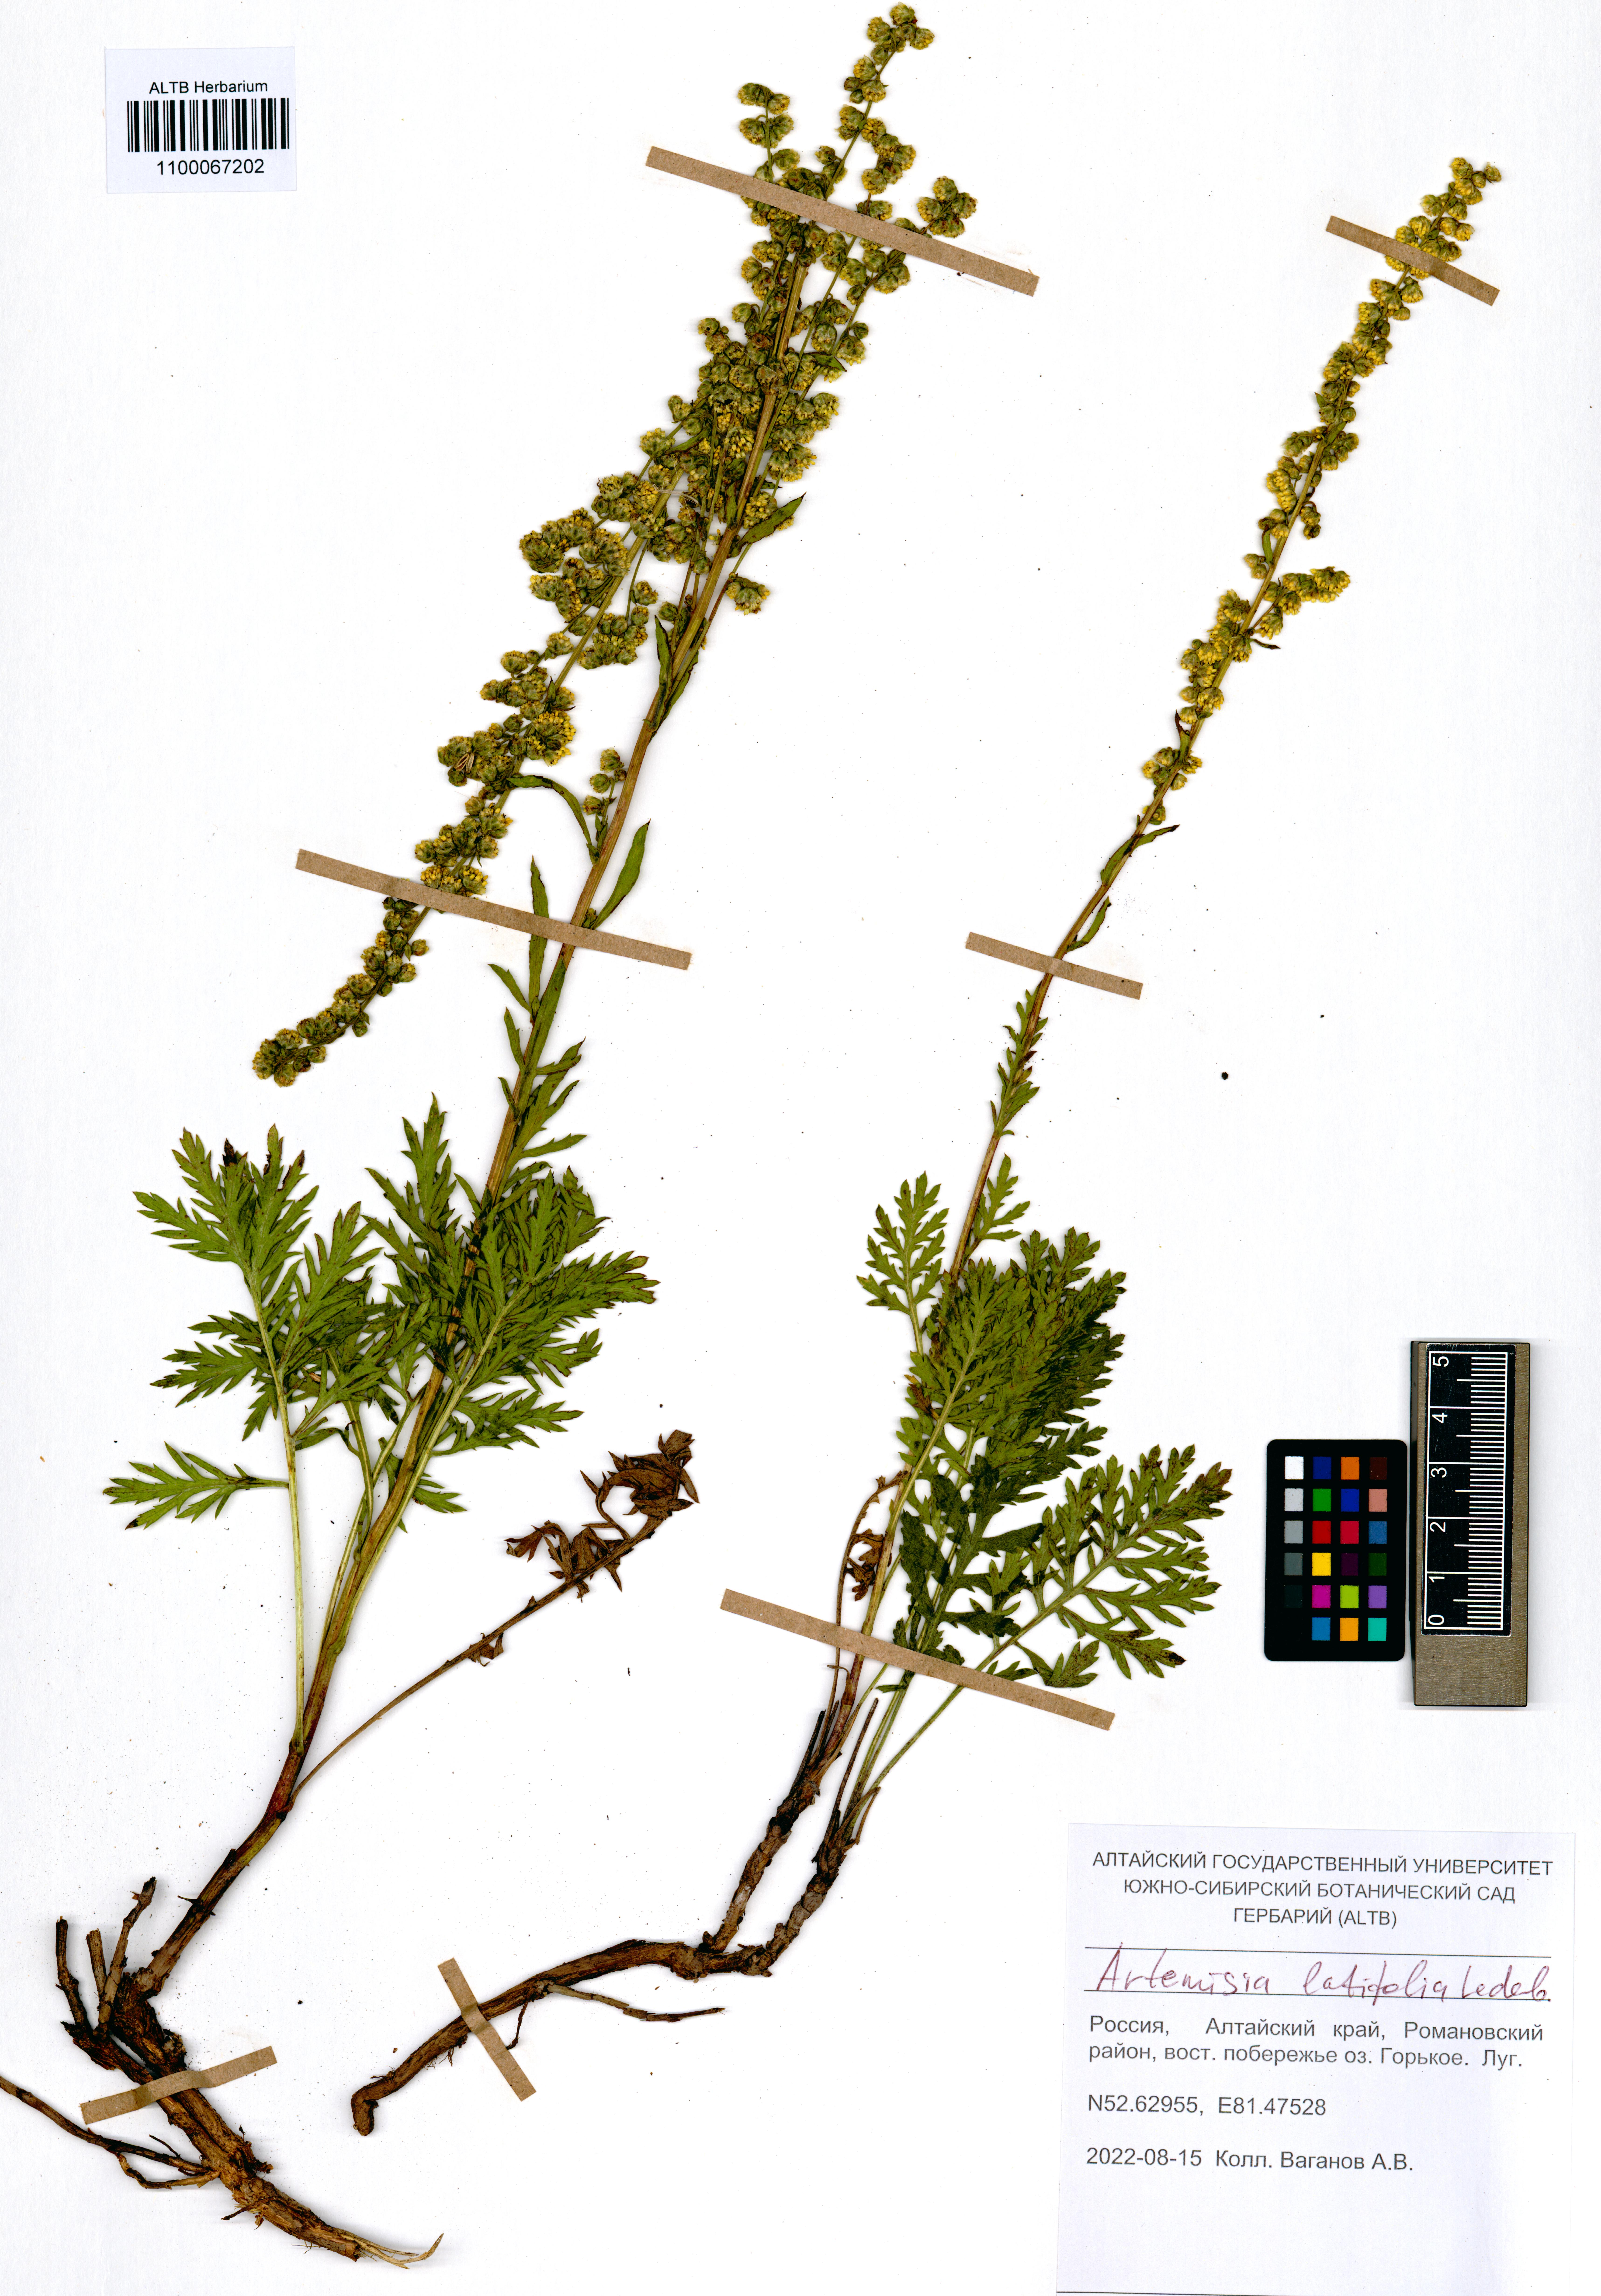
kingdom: Plantae
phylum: Tracheophyta
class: Magnoliopsida
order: Asterales
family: Asteraceae
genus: Artemisia
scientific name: Artemisia latifolia
